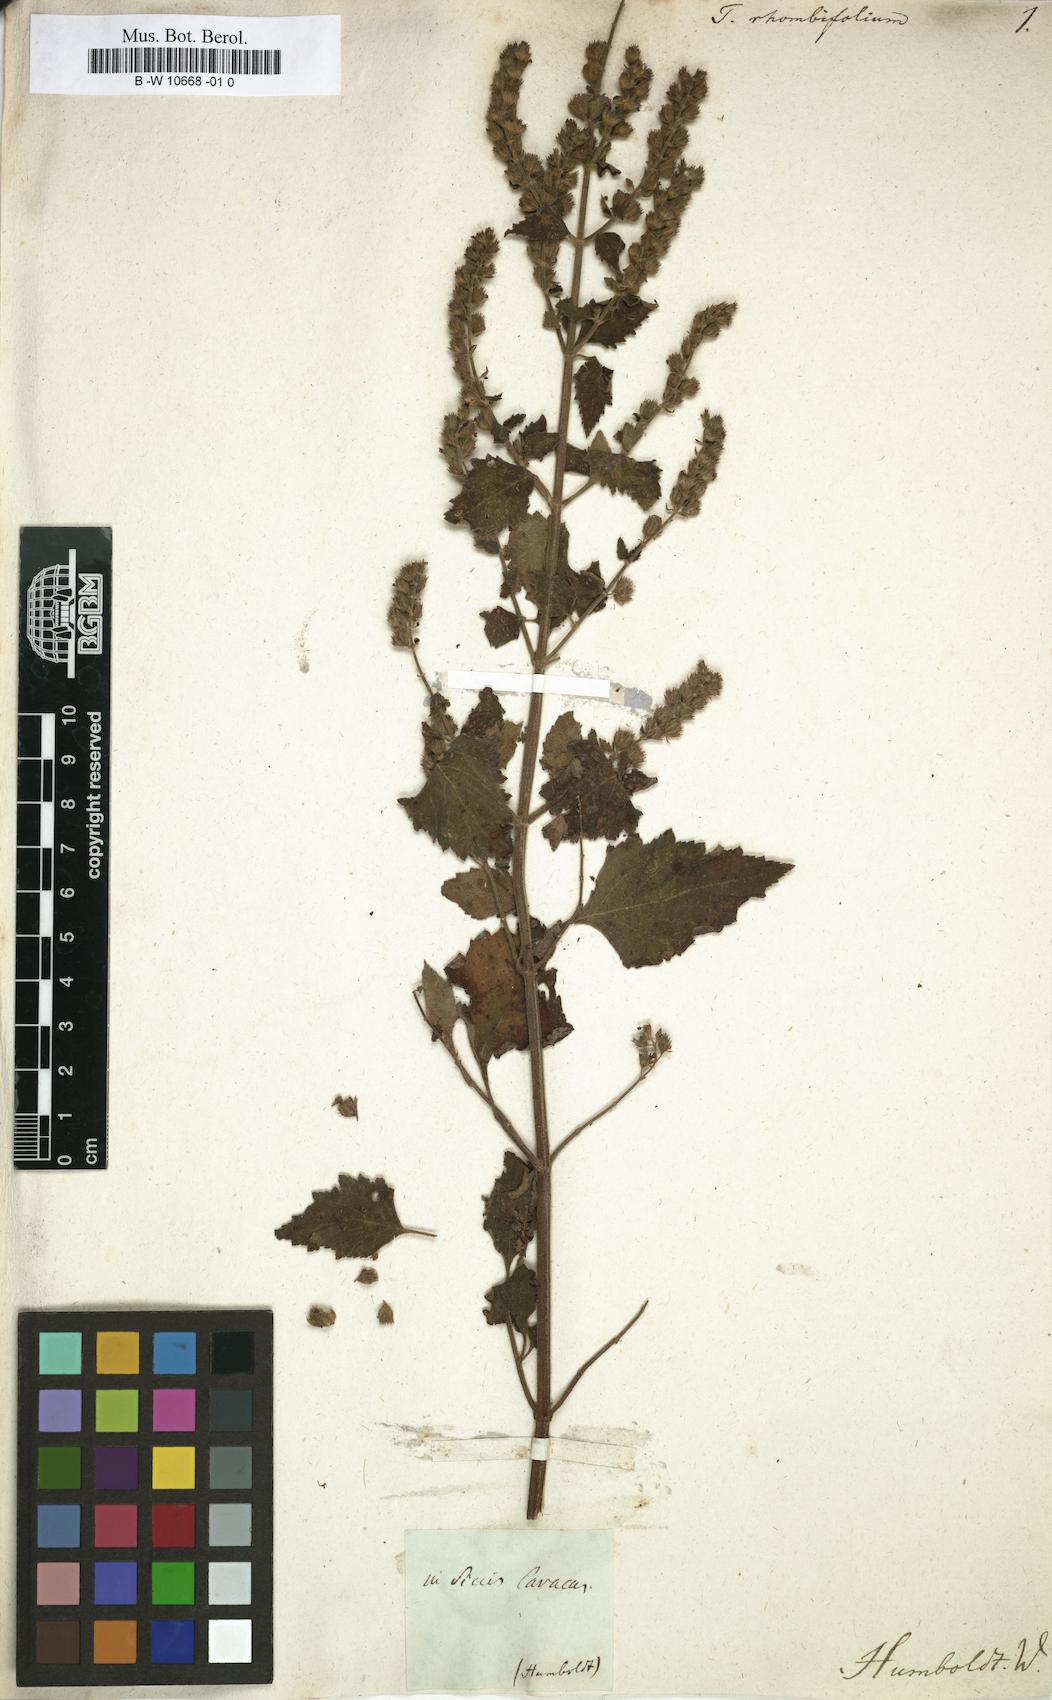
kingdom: Plantae
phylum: Tracheophyta
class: Magnoliopsida
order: Lamiales
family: Lamiaceae
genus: Cantinoa
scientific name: Cantinoa mutabilis
